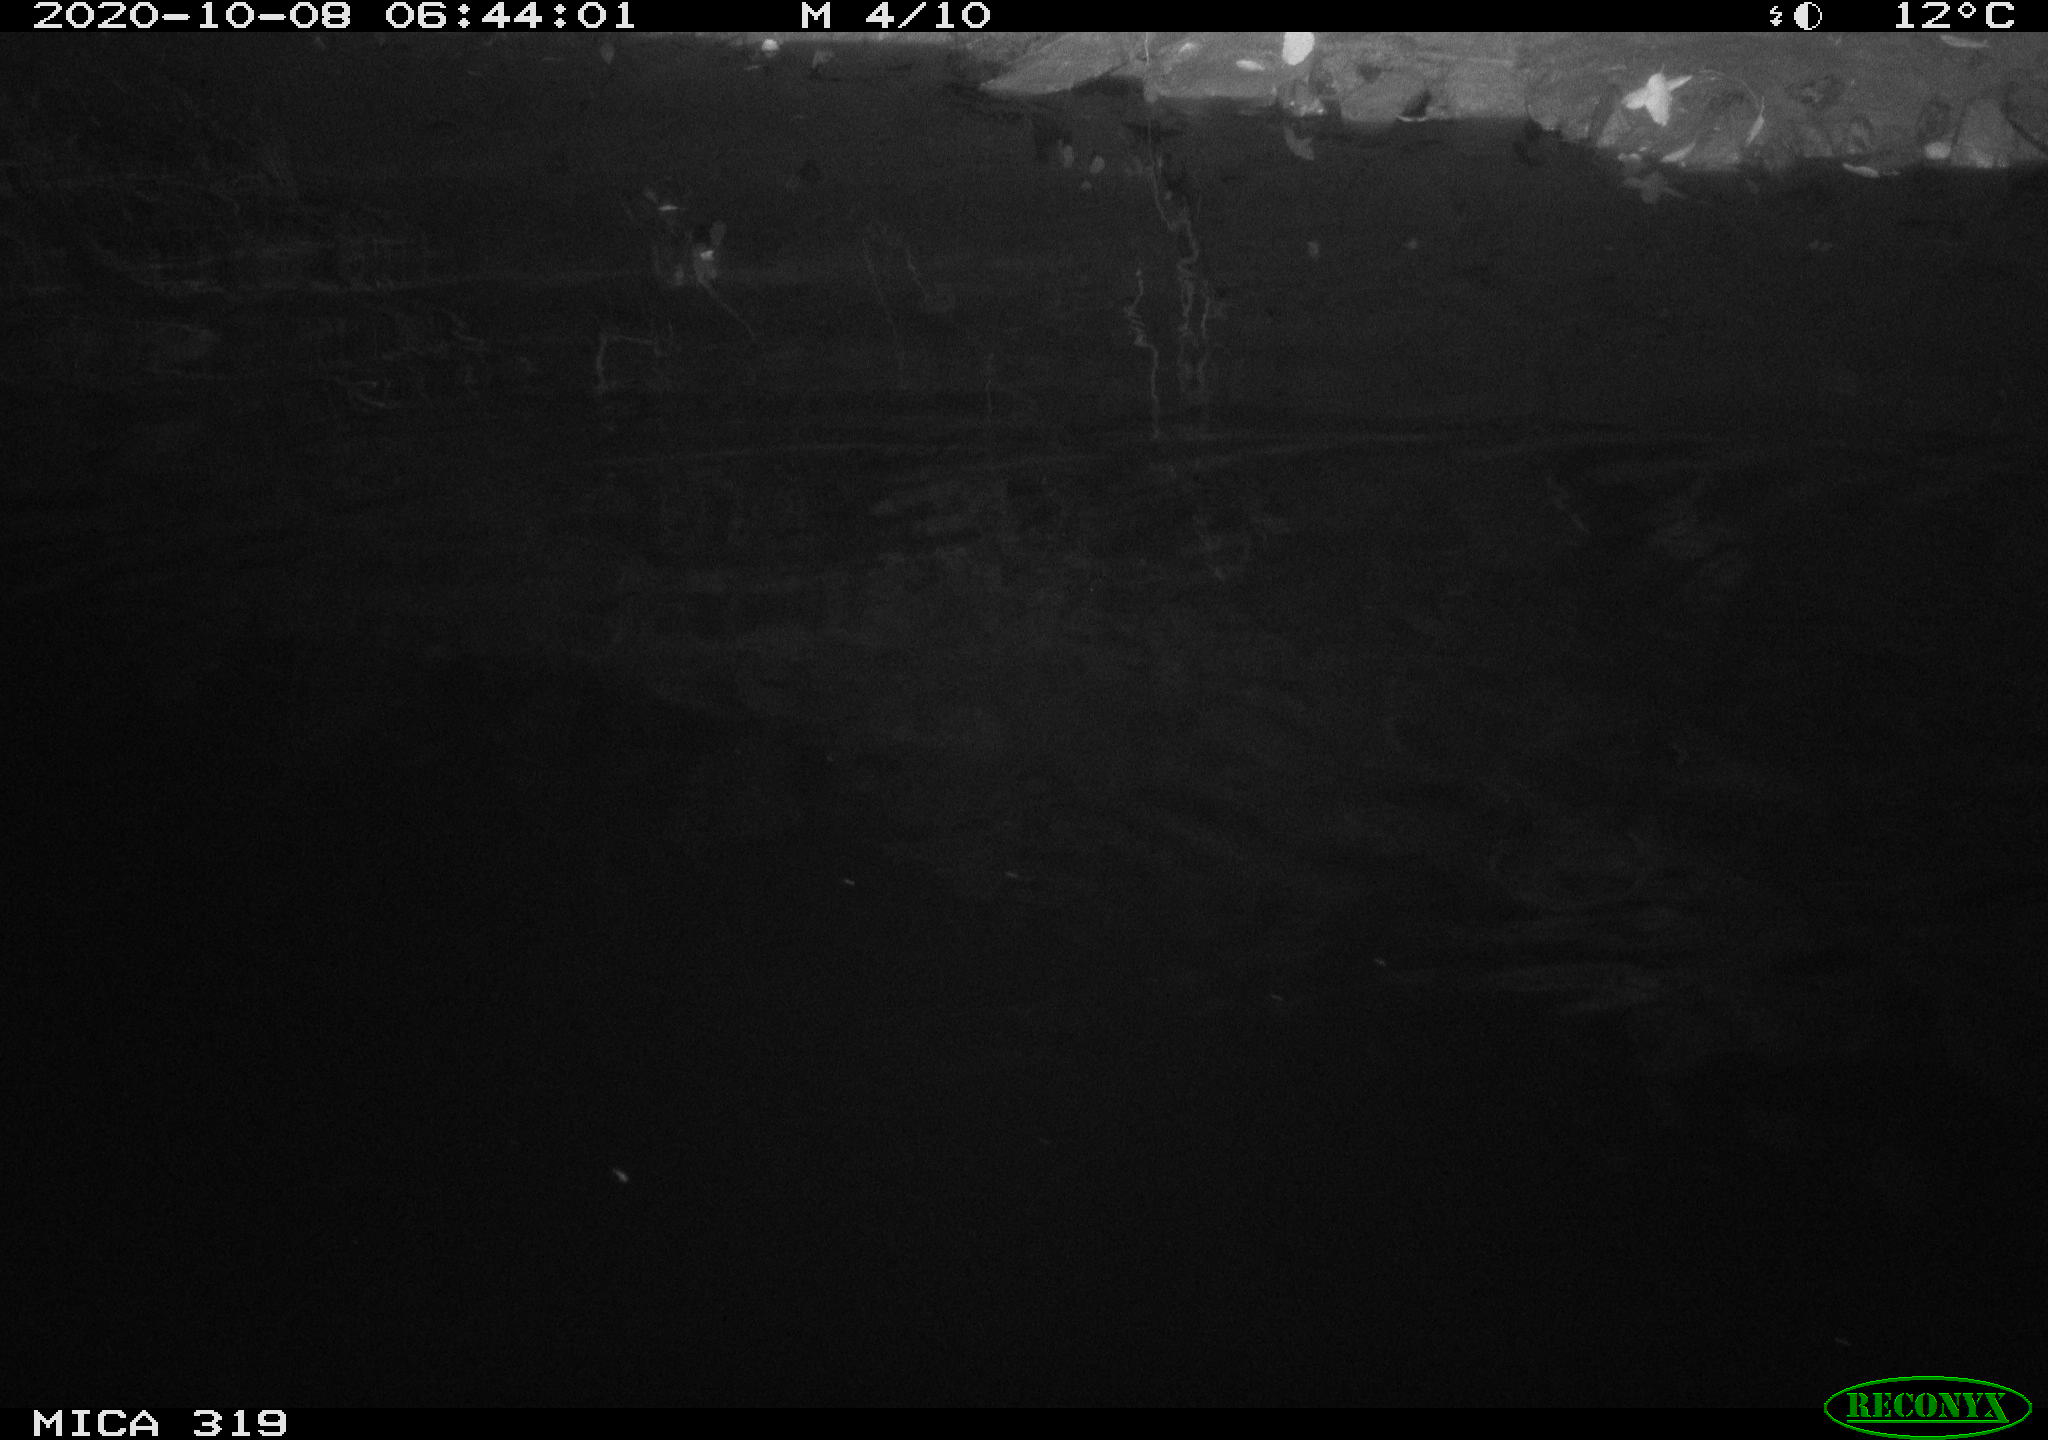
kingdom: Animalia
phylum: Chordata
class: Mammalia
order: Rodentia
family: Muridae
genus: Rattus
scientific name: Rattus norvegicus
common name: Brown rat
